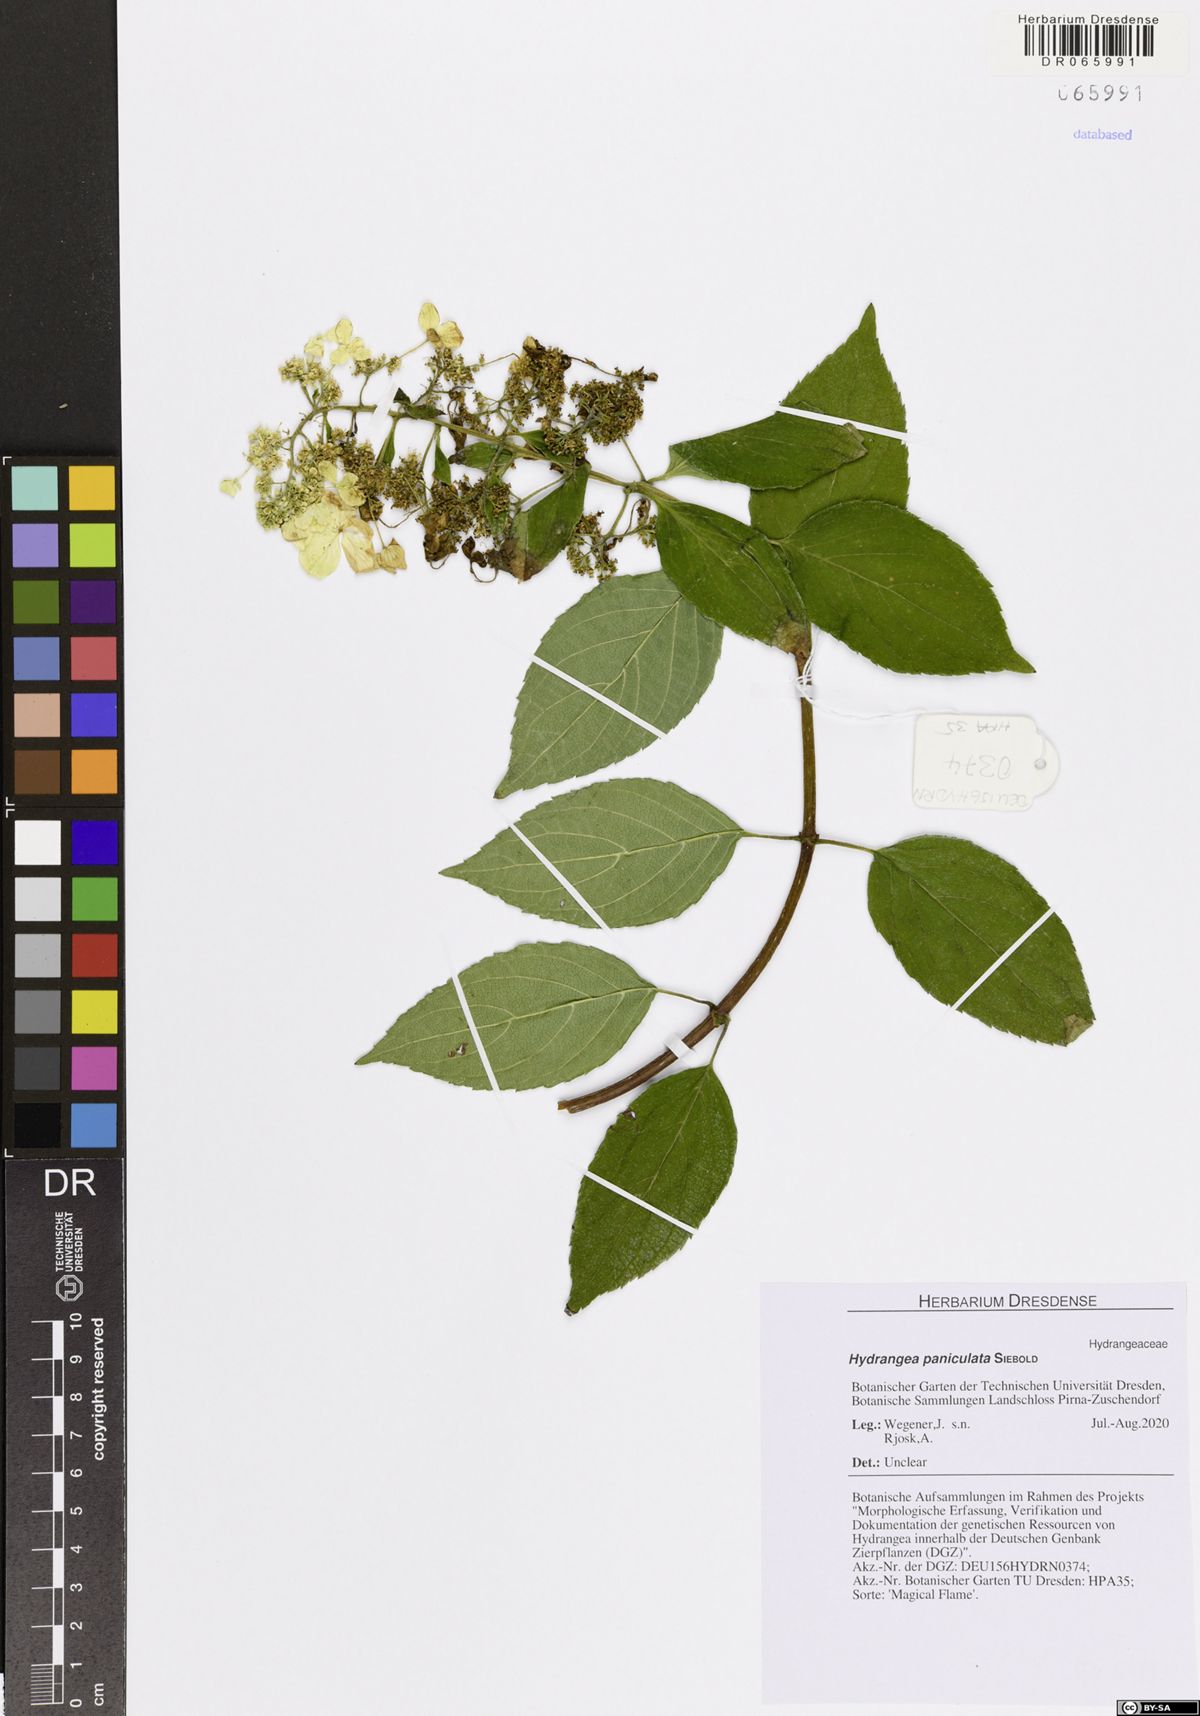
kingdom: Plantae
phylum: Tracheophyta
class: Magnoliopsida
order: Cornales
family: Hydrangeaceae
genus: Hydrangea
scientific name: Hydrangea paniculata
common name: Panicled hydrangea
